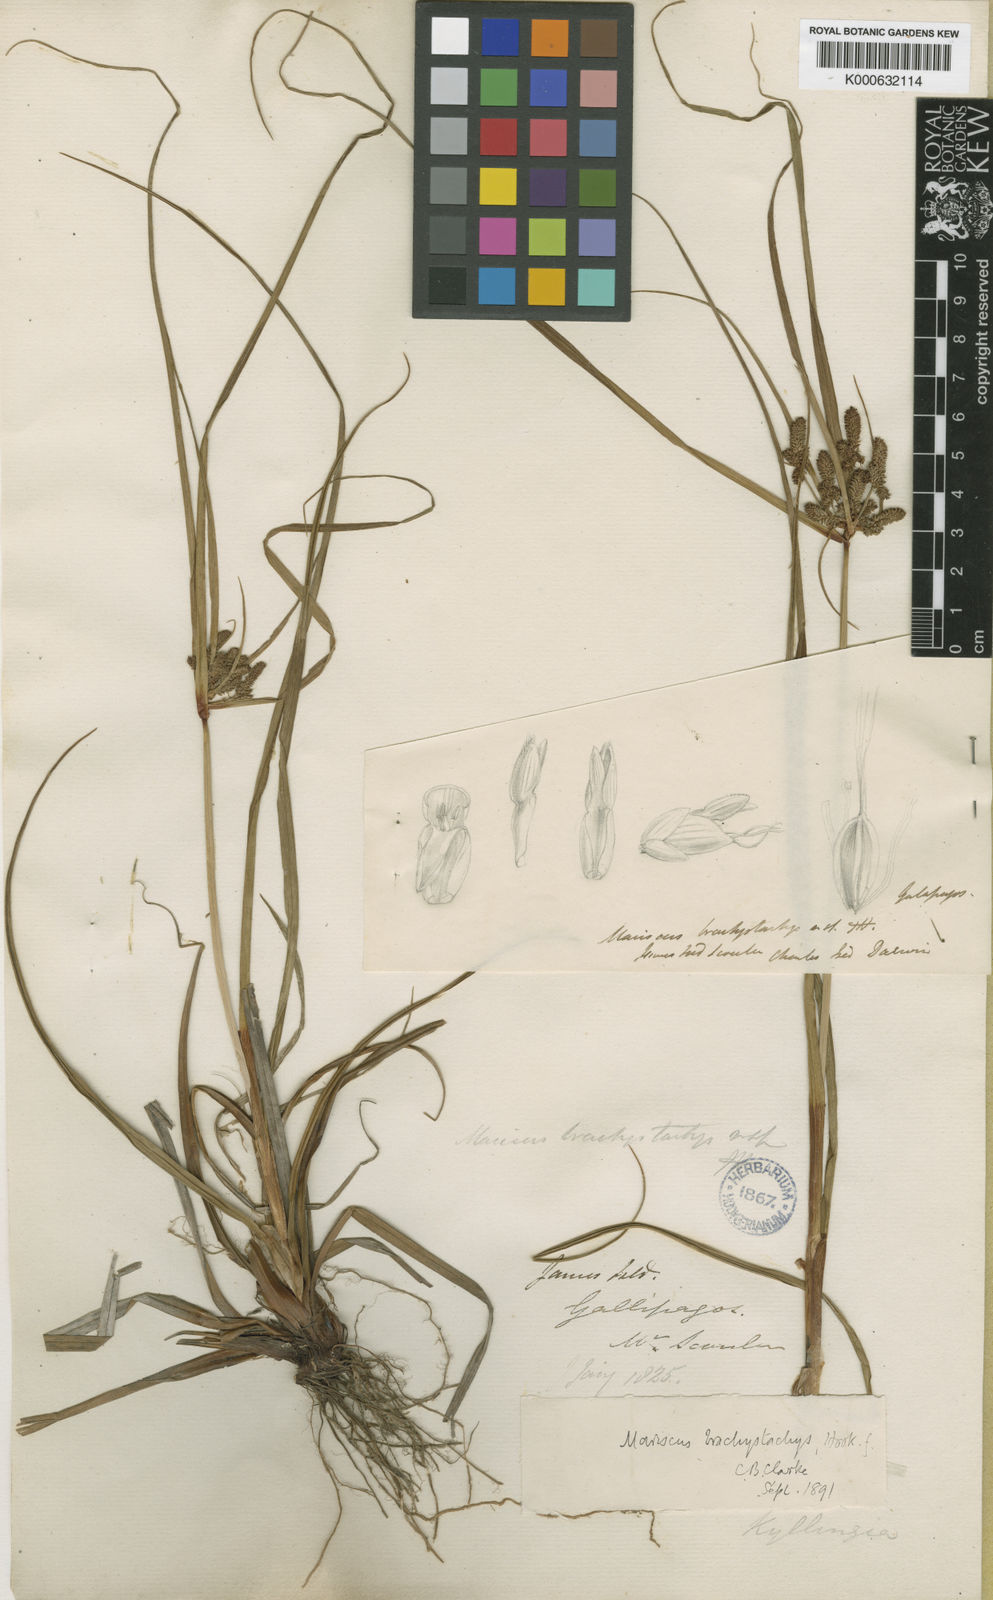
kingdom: Plantae
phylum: Tracheophyta
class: Liliopsida
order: Poales
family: Cyperaceae
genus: Cyperus
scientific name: Cyperus anderssonii
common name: Andersson's sedge
